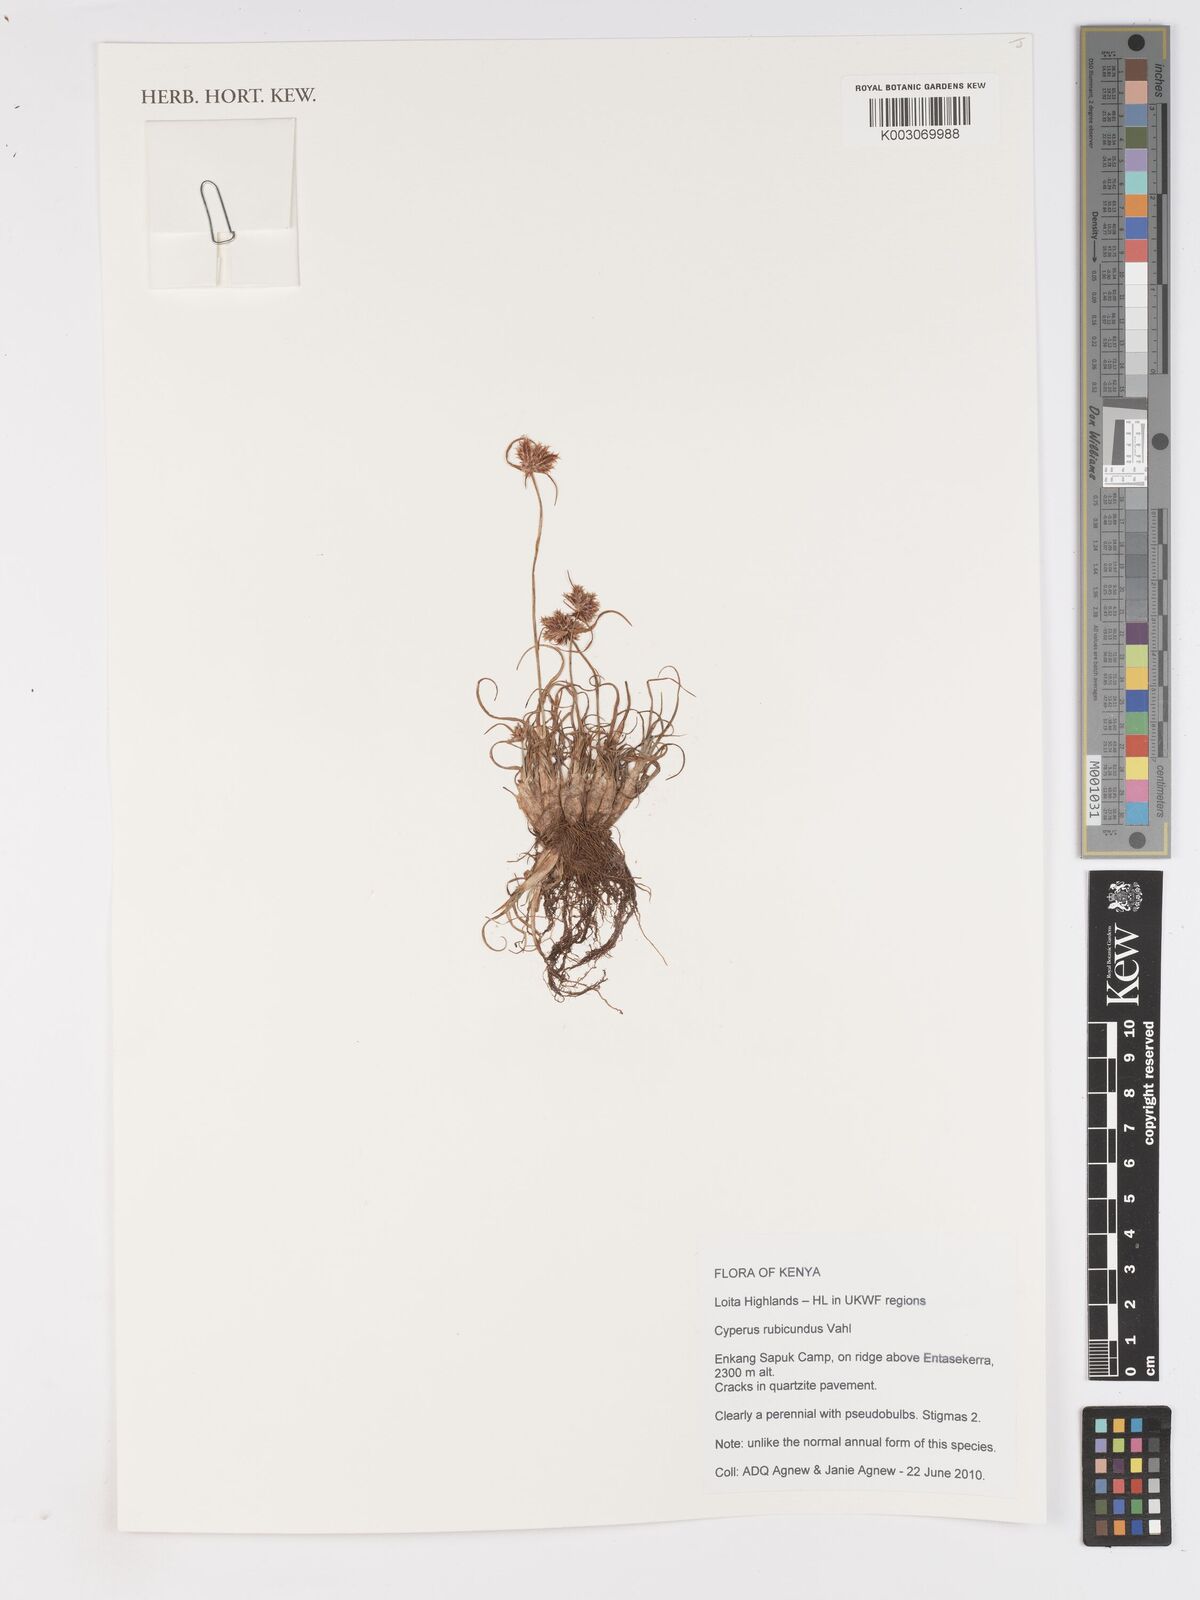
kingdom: Plantae
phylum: Tracheophyta
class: Liliopsida
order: Poales
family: Cyperaceae
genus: Cyperus
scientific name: Cyperus rubicundus
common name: Coco-grass
